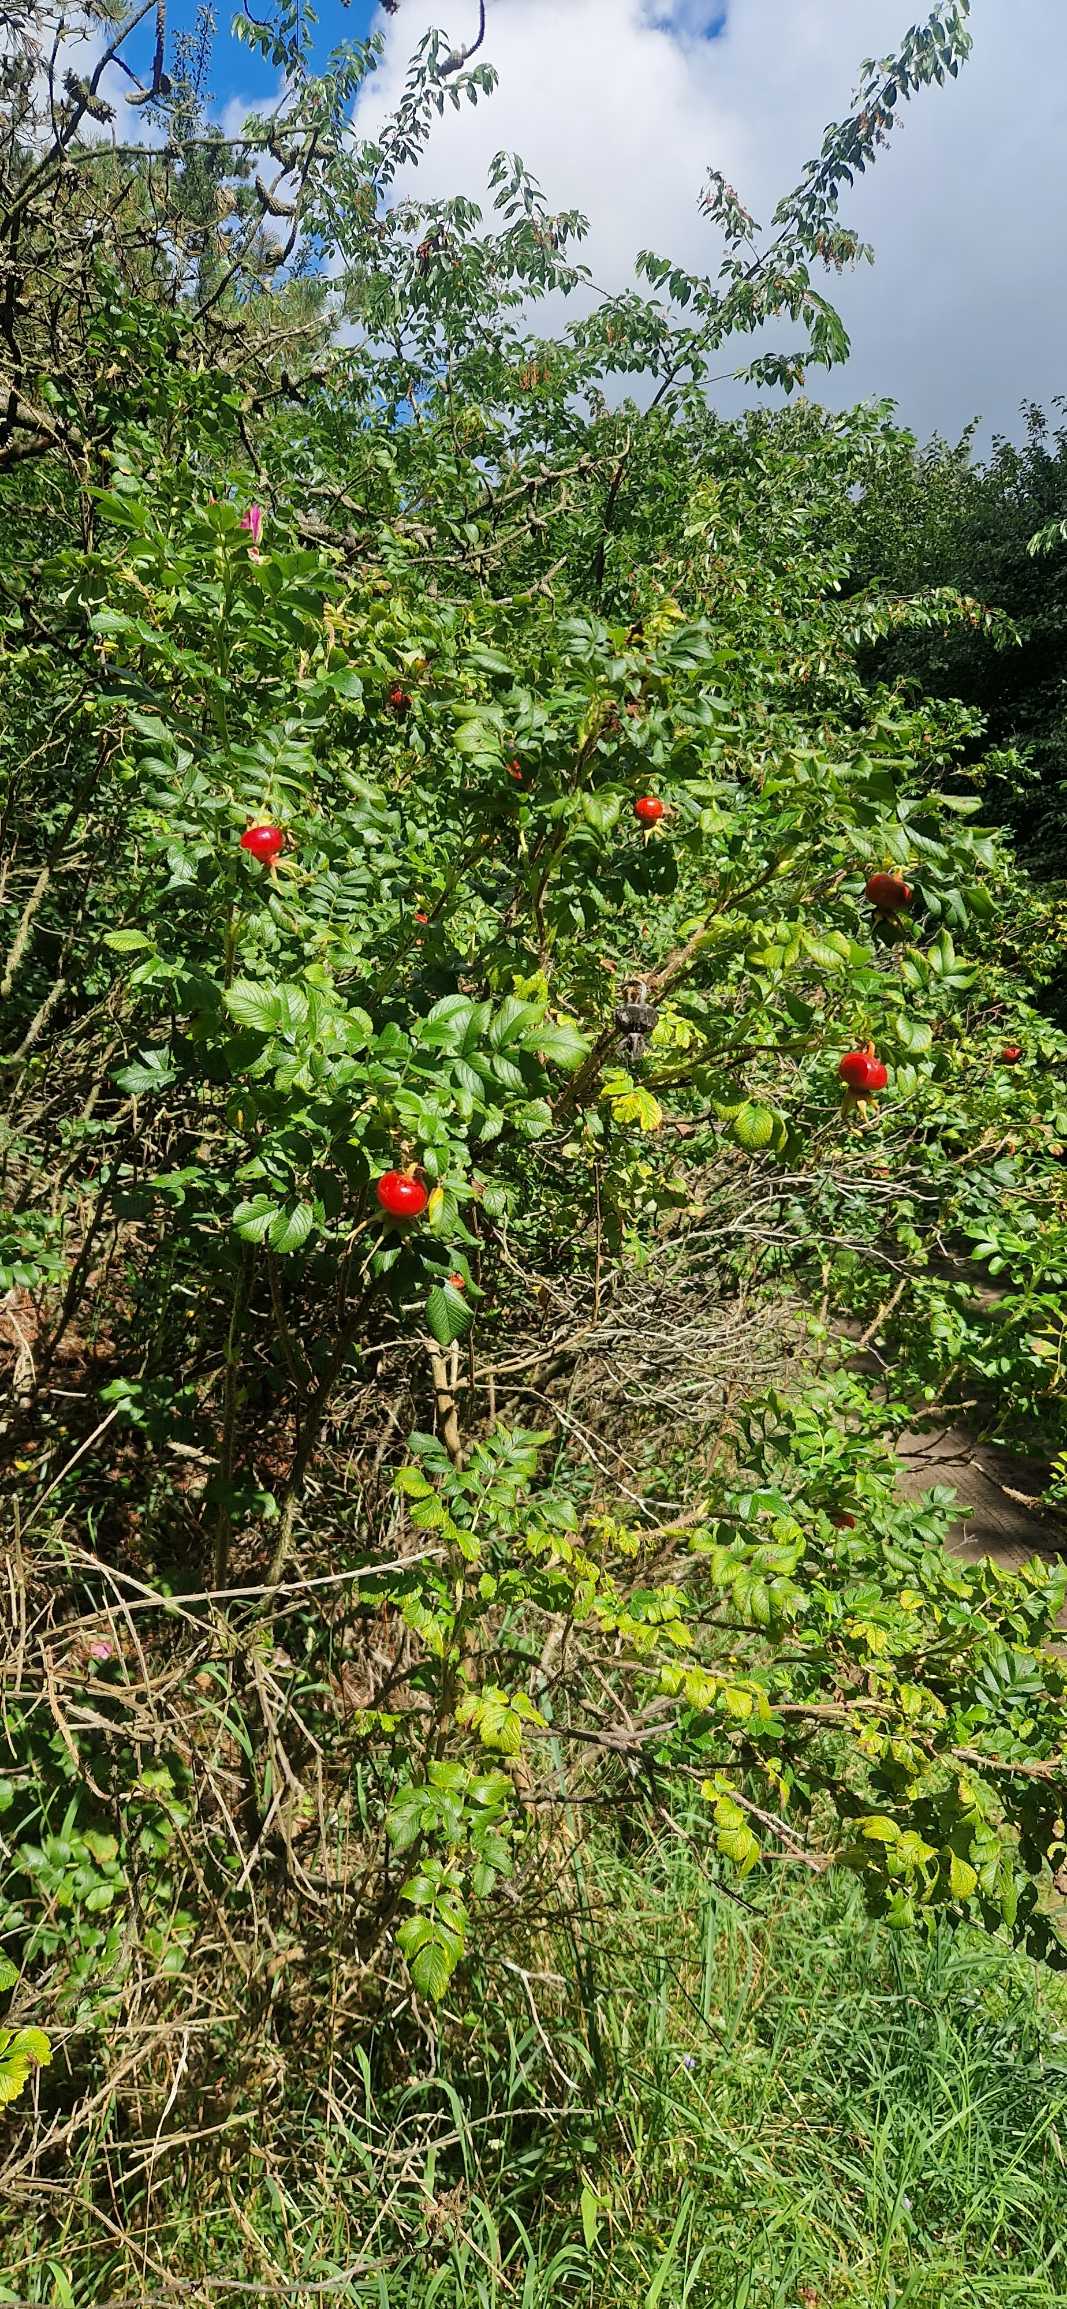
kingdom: Plantae
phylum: Tracheophyta
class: Magnoliopsida
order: Rosales
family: Rosaceae
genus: Rosa
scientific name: Rosa rugosa
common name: Rynket rose
